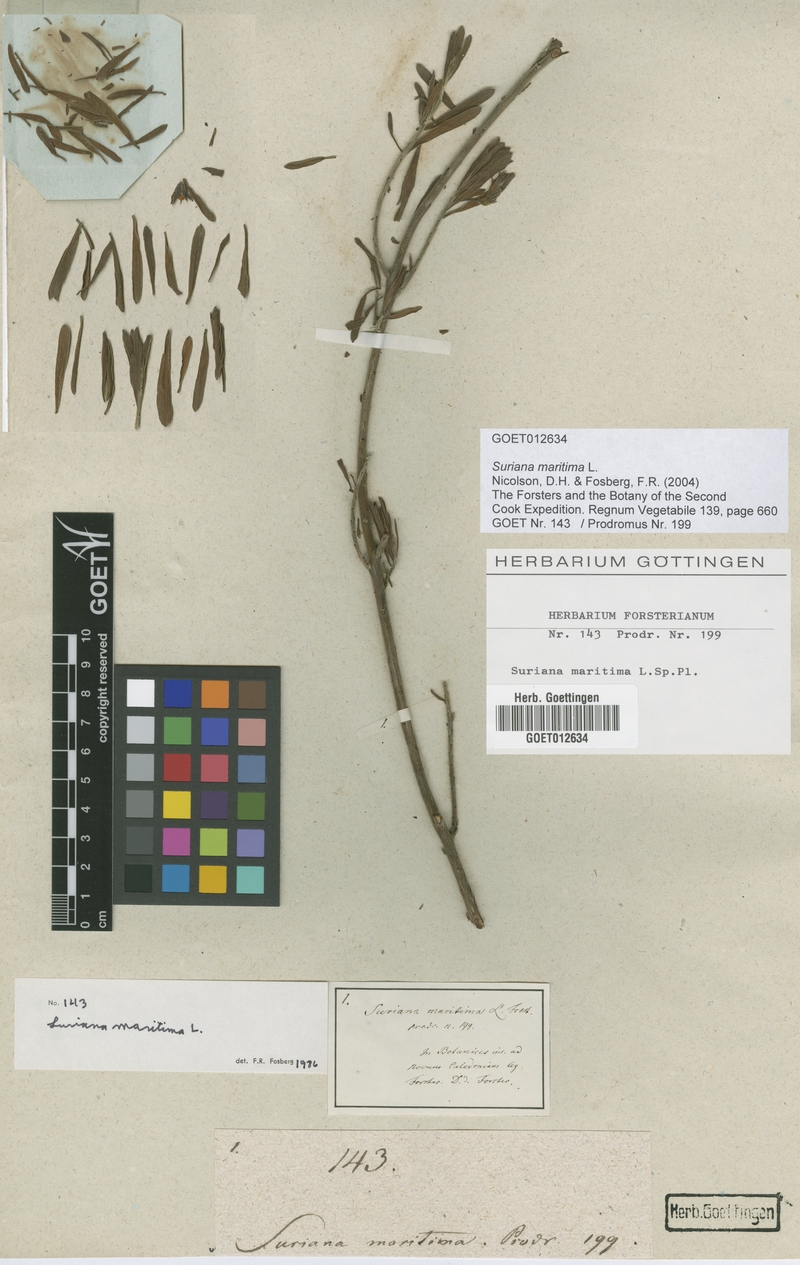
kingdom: Plantae
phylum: Tracheophyta
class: Magnoliopsida
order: Fabales
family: Surianaceae
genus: Suriana
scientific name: Suriana maritima
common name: Bay-cedar
